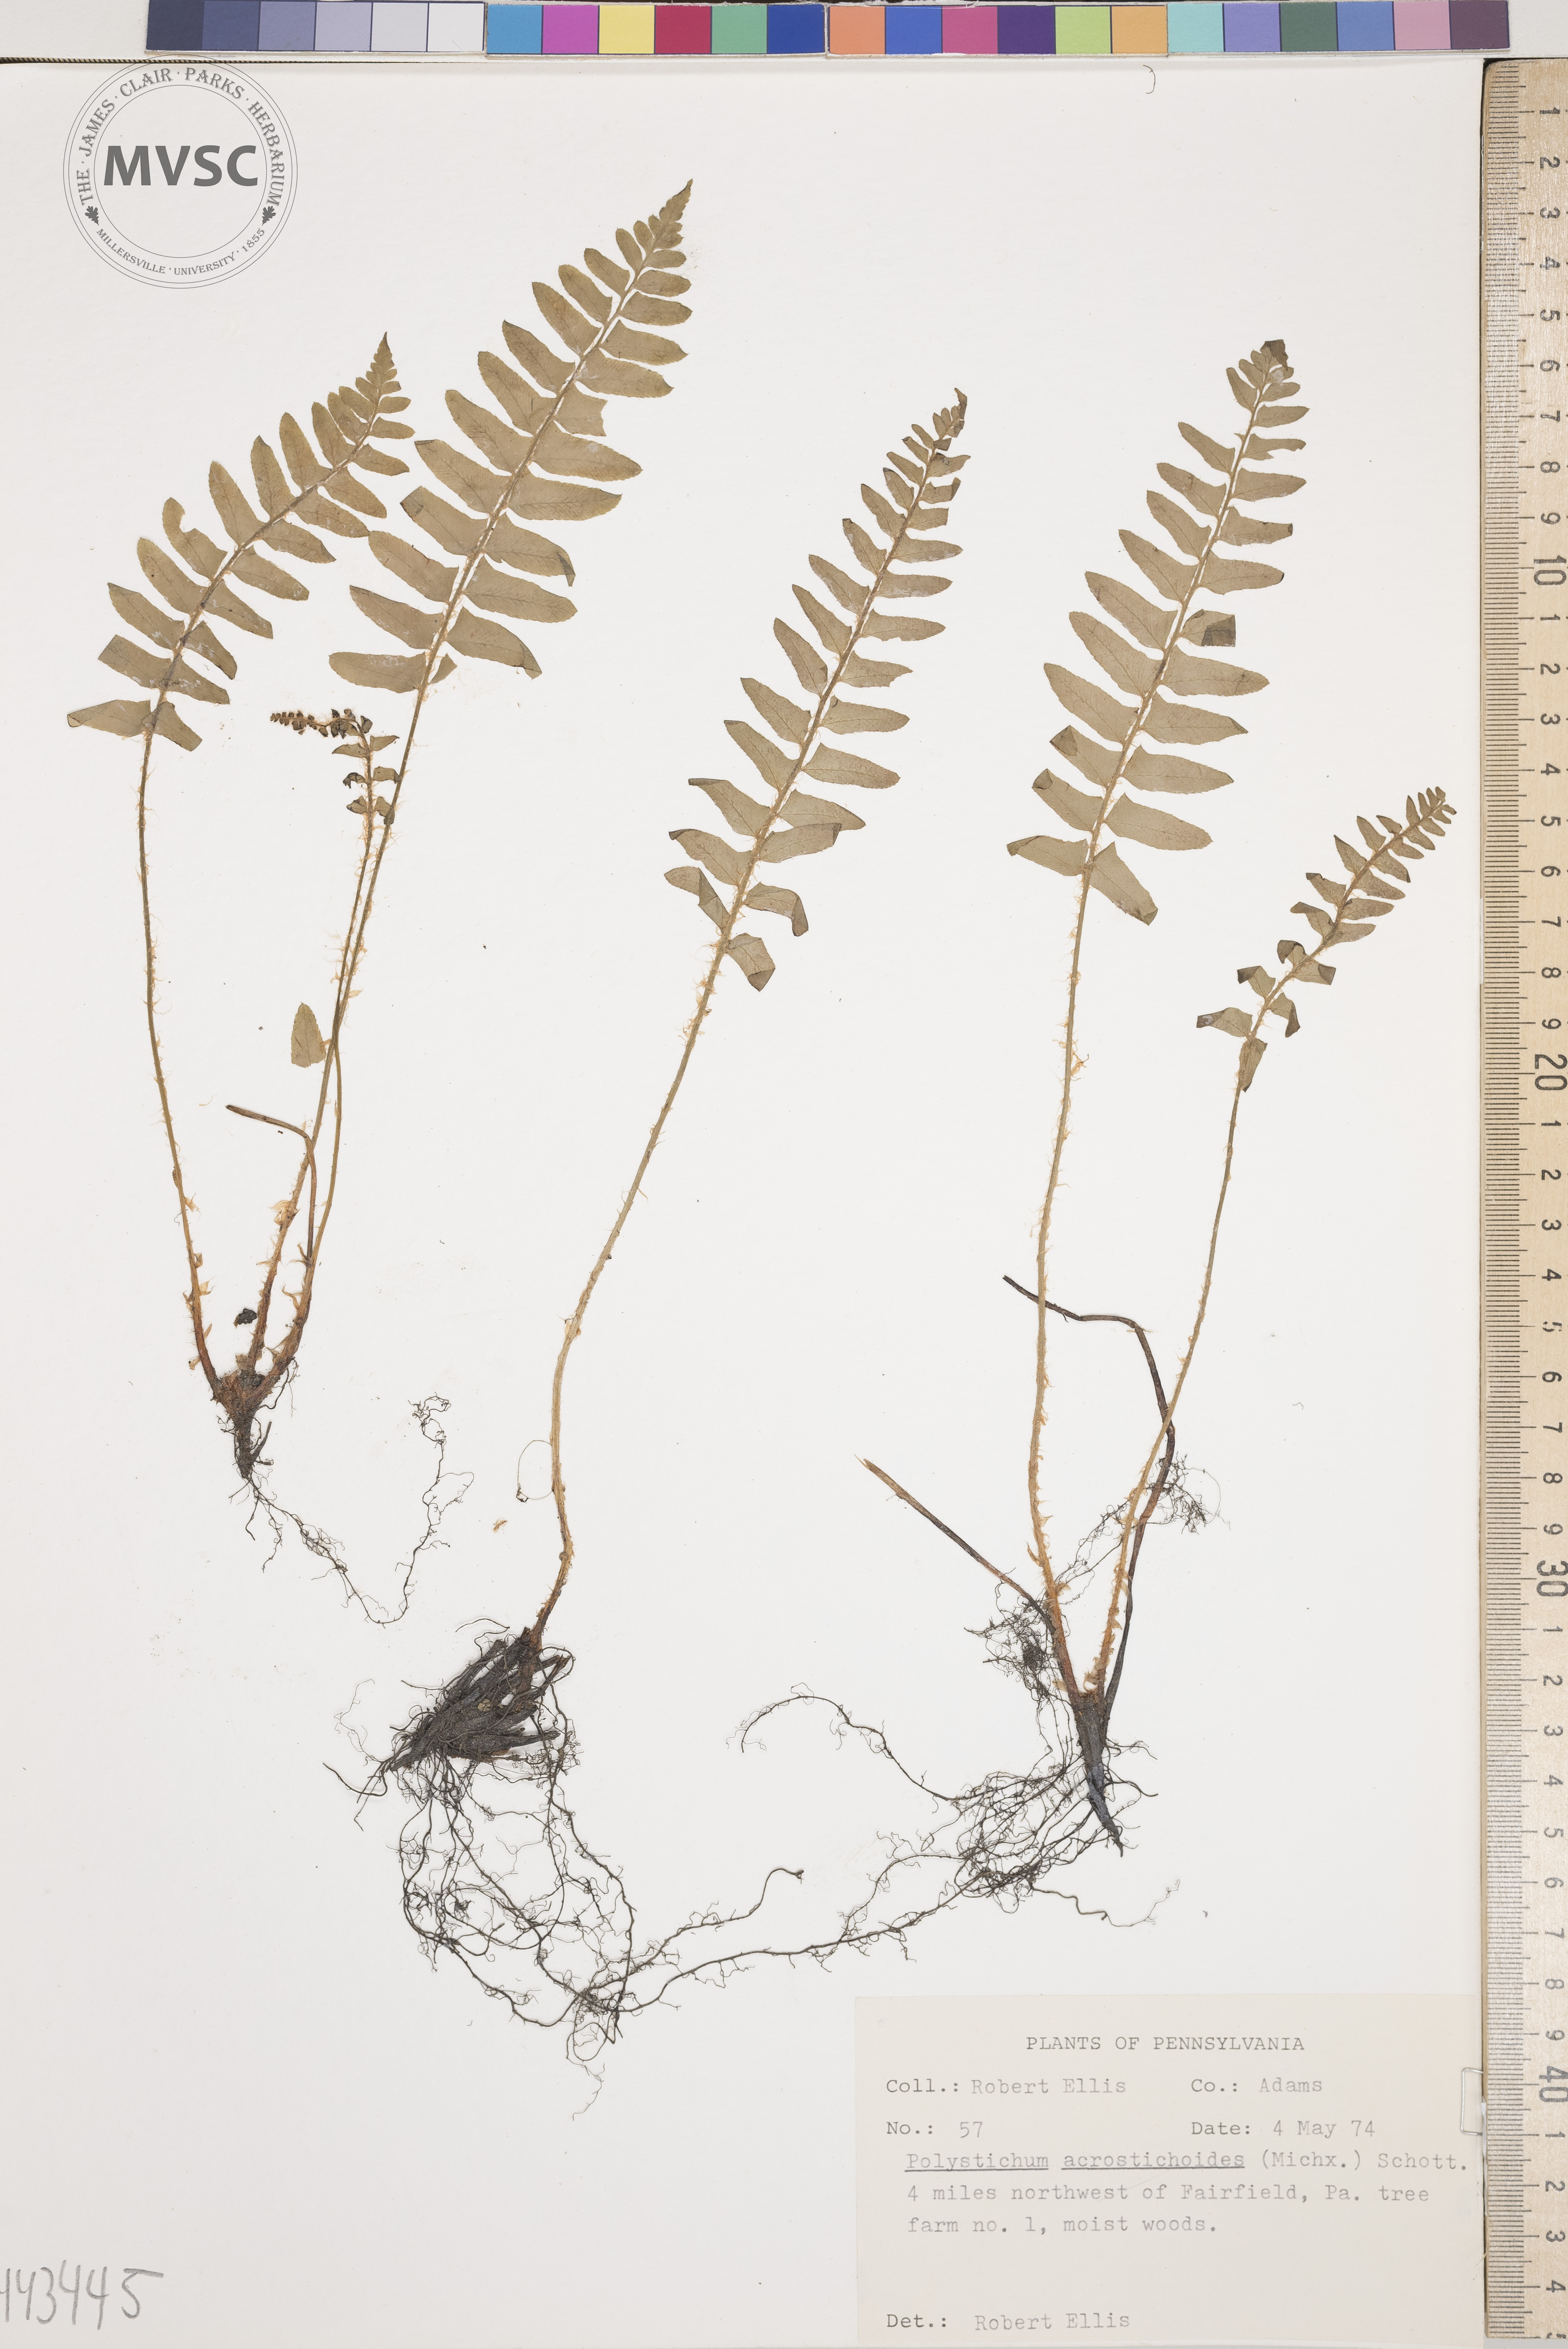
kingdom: Plantae
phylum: Tracheophyta
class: Polypodiopsida
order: Polypodiales
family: Dryopteridaceae
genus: Polystichum
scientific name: Polystichum acrostichoides
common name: Christmas fern
